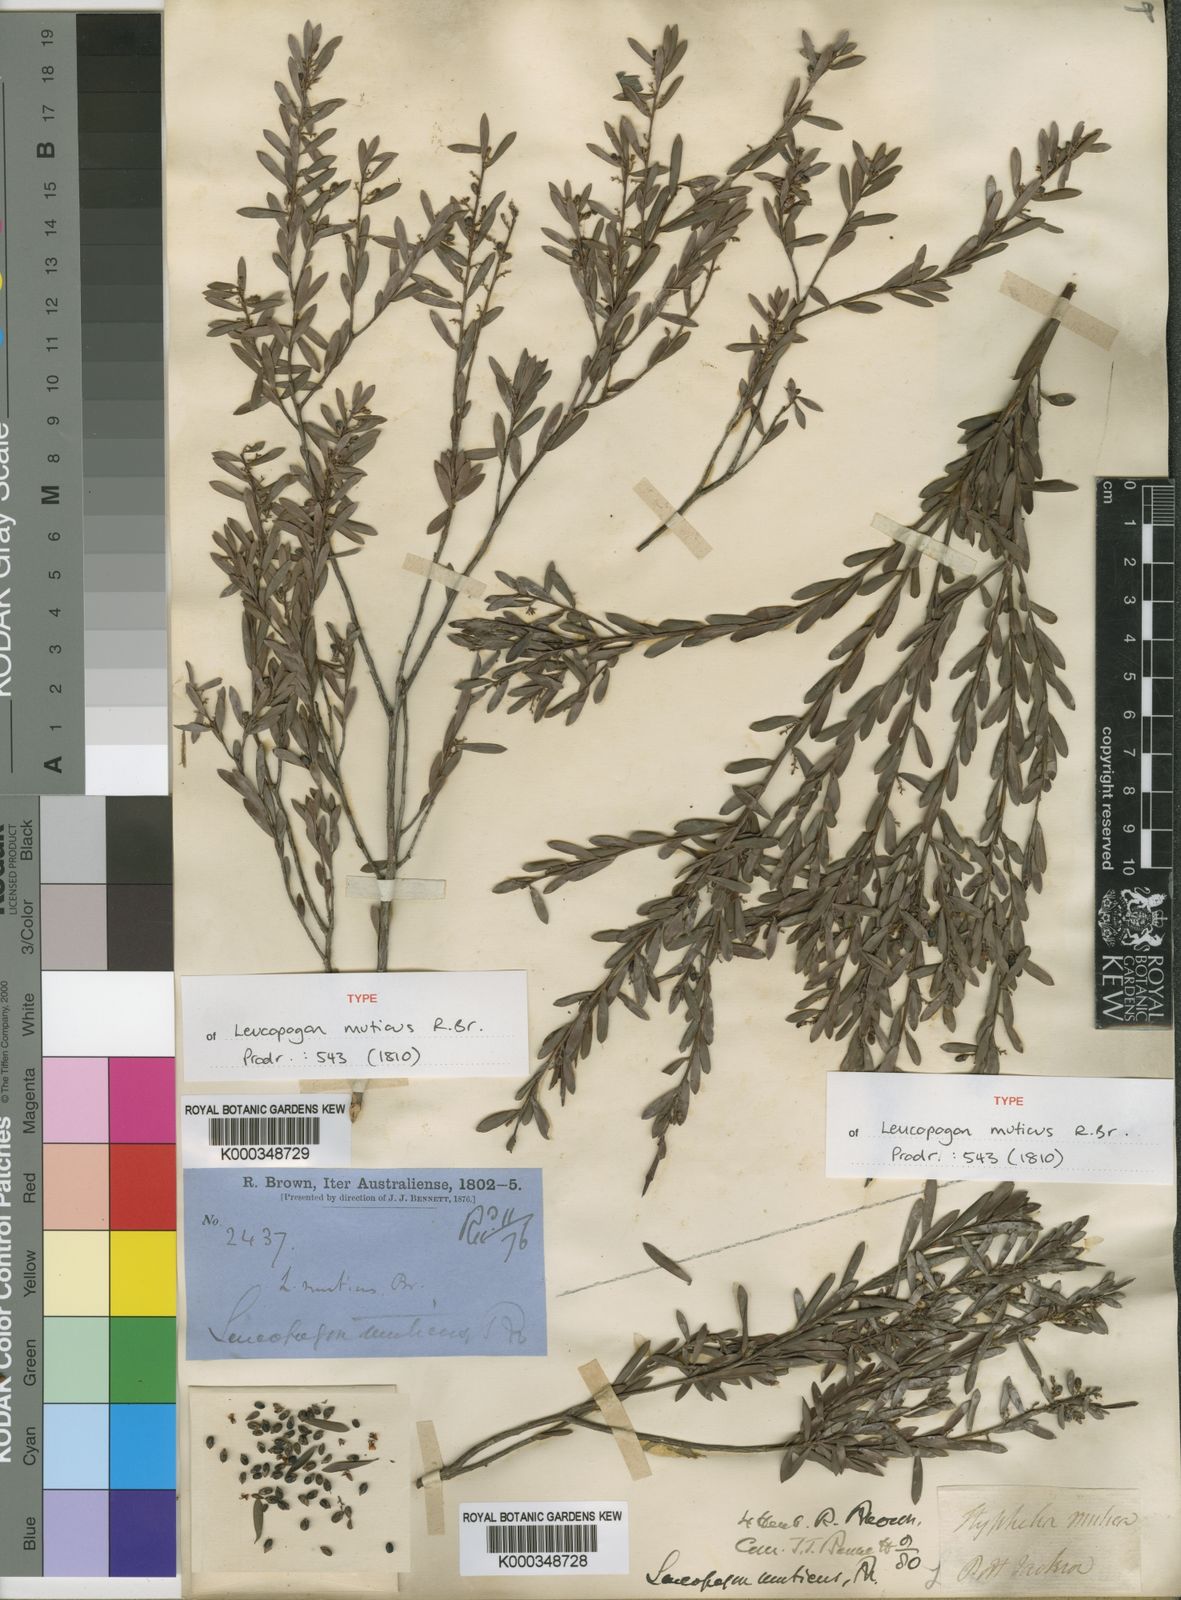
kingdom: Plantae
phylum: Tracheophyta
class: Magnoliopsida
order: Ericales
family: Ericaceae
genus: Styphelia
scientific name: Styphelia mutica
